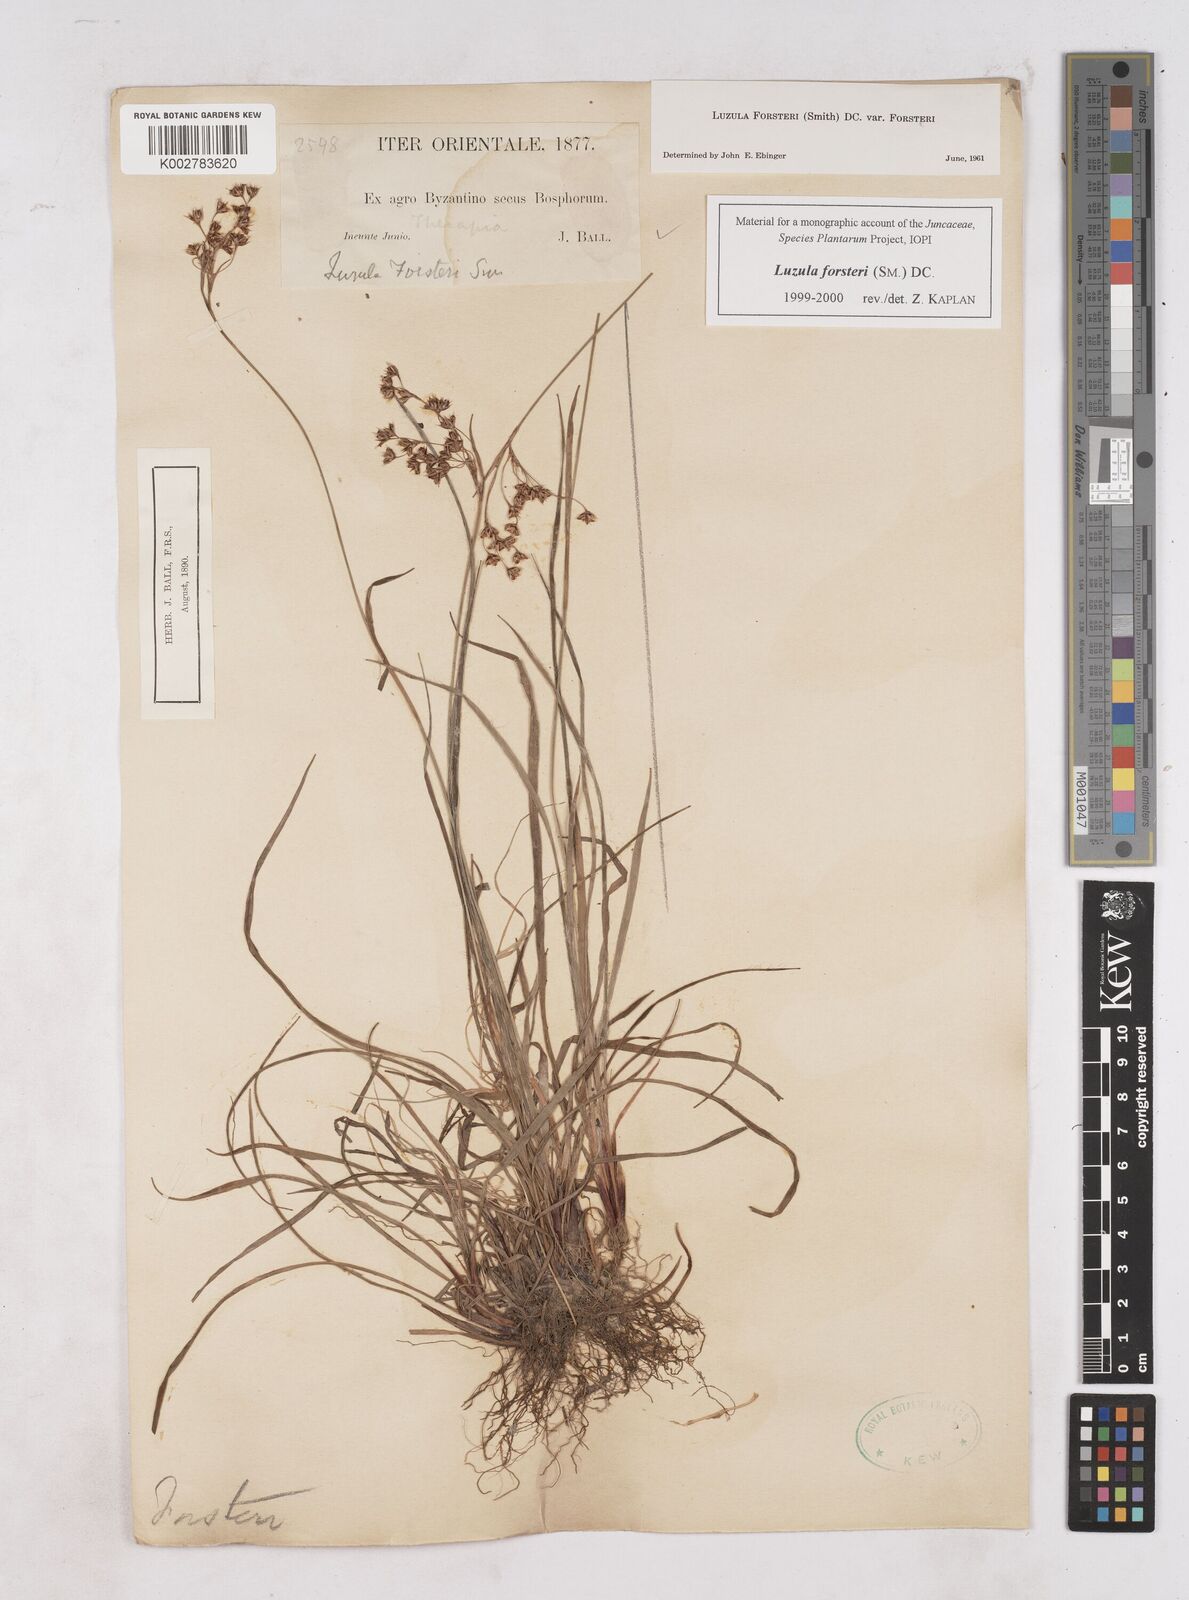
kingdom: Plantae
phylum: Tracheophyta
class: Liliopsida
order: Poales
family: Juncaceae
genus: Luzula
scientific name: Luzula forsteri
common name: Southern wood-rush
